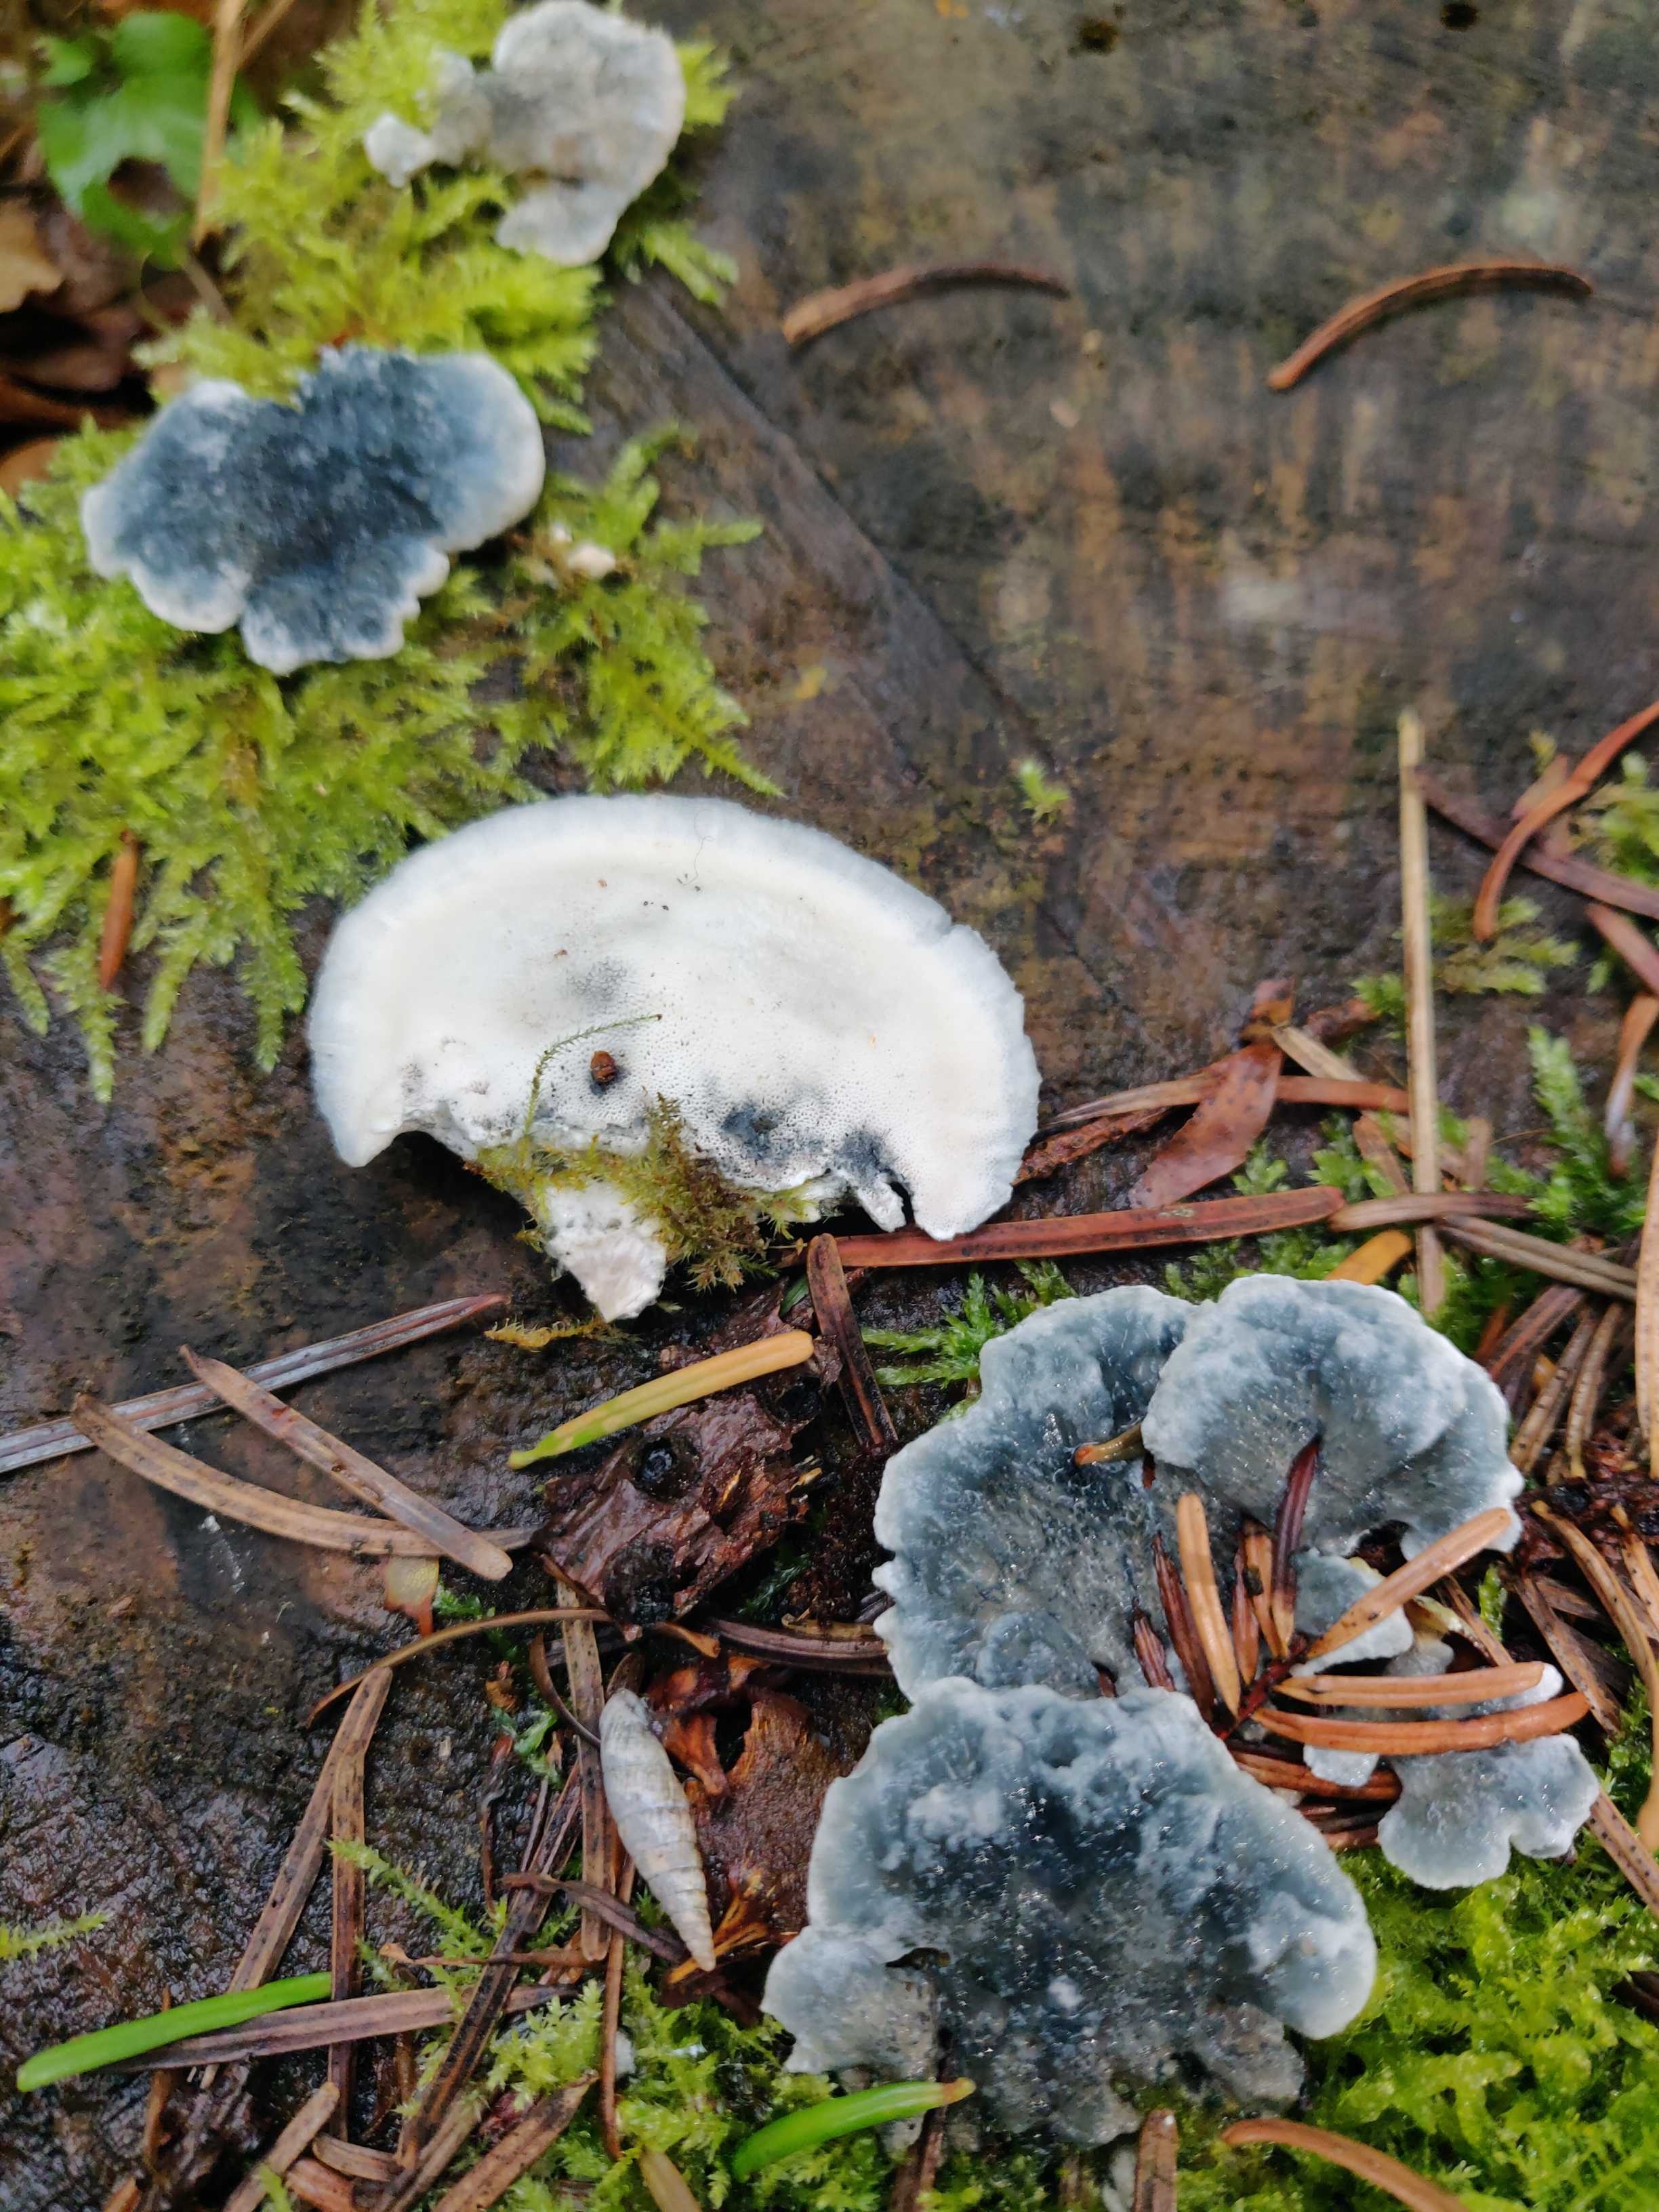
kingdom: Fungi
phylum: Basidiomycota
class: Agaricomycetes
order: Polyporales
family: Polyporaceae
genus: Cyanosporus
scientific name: Cyanosporus caesius
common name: blålig kødporesvamp
